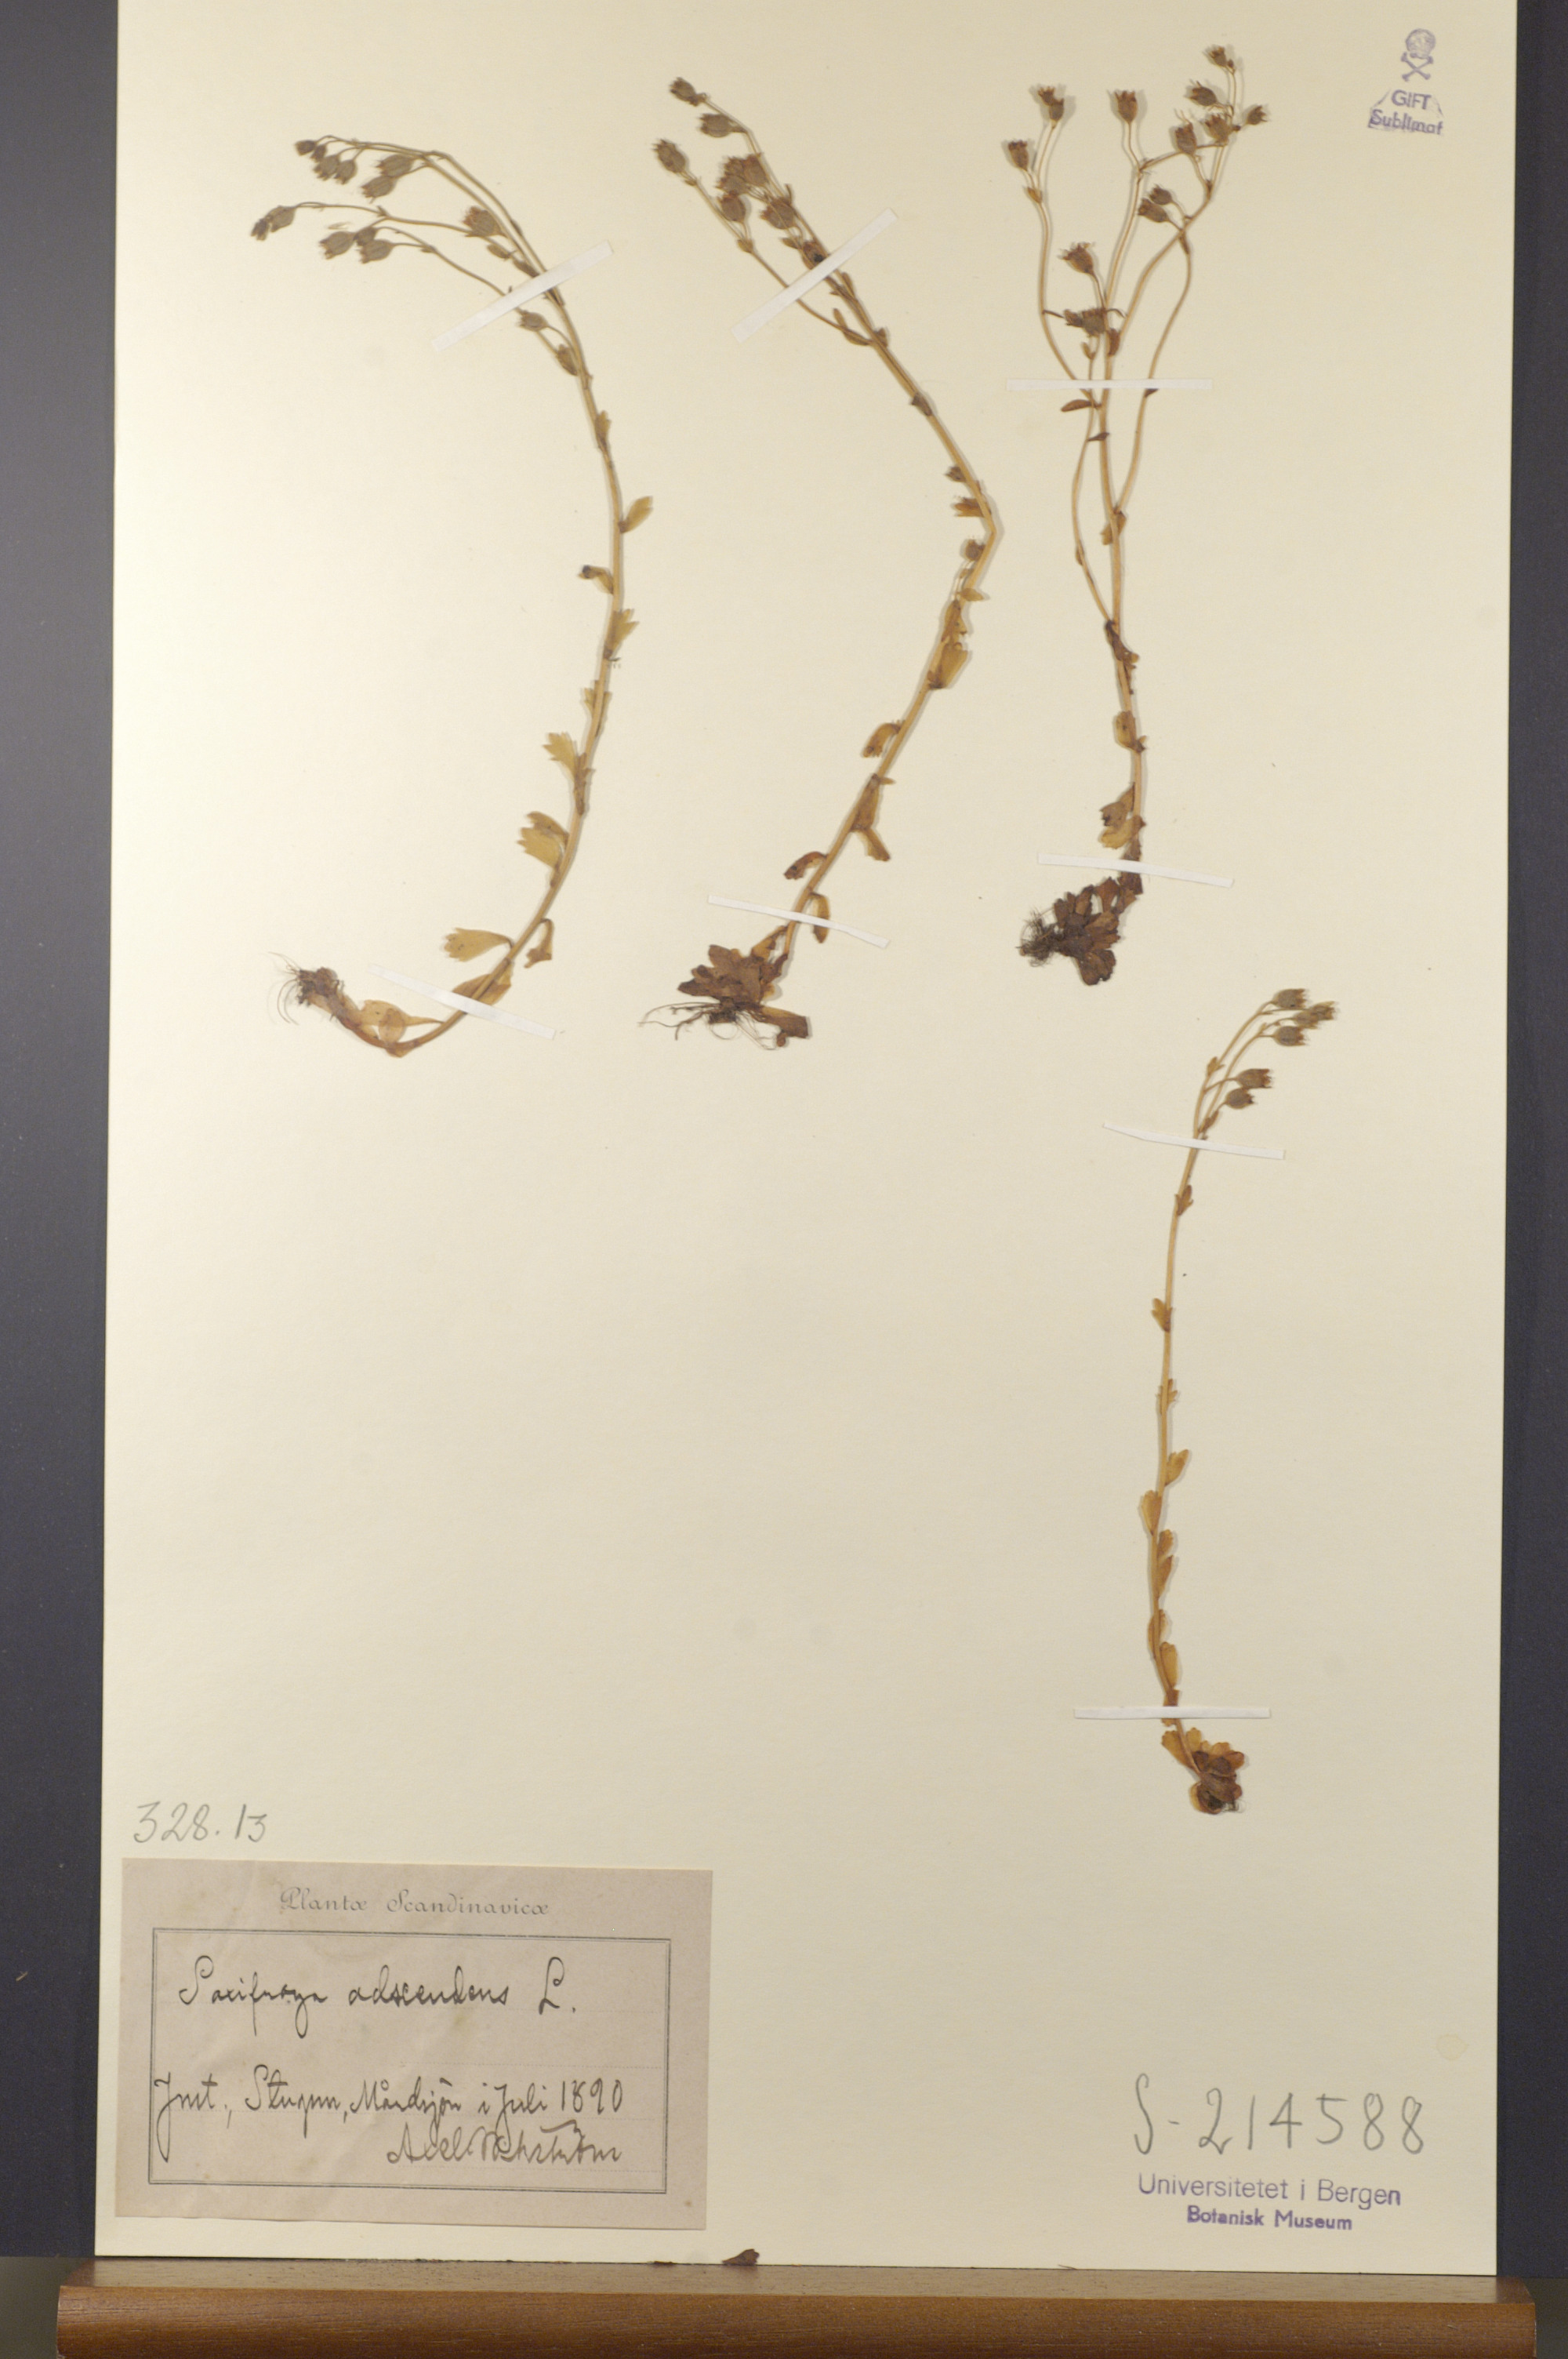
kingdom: Plantae
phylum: Tracheophyta
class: Magnoliopsida
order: Saxifragales
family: Saxifragaceae
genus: Saxifraga
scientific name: Saxifraga adscendens
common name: Ascending saxifrage
